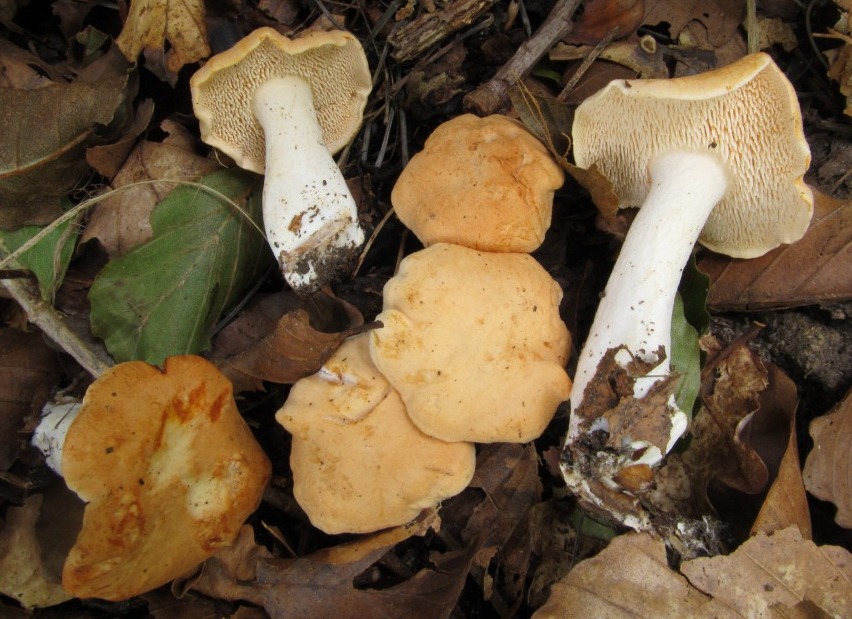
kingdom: Fungi
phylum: Basidiomycota
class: Agaricomycetes
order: Cantharellales
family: Hydnaceae
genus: Hydnum
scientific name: Hydnum ellipsosporum
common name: tandet pigsvamp
